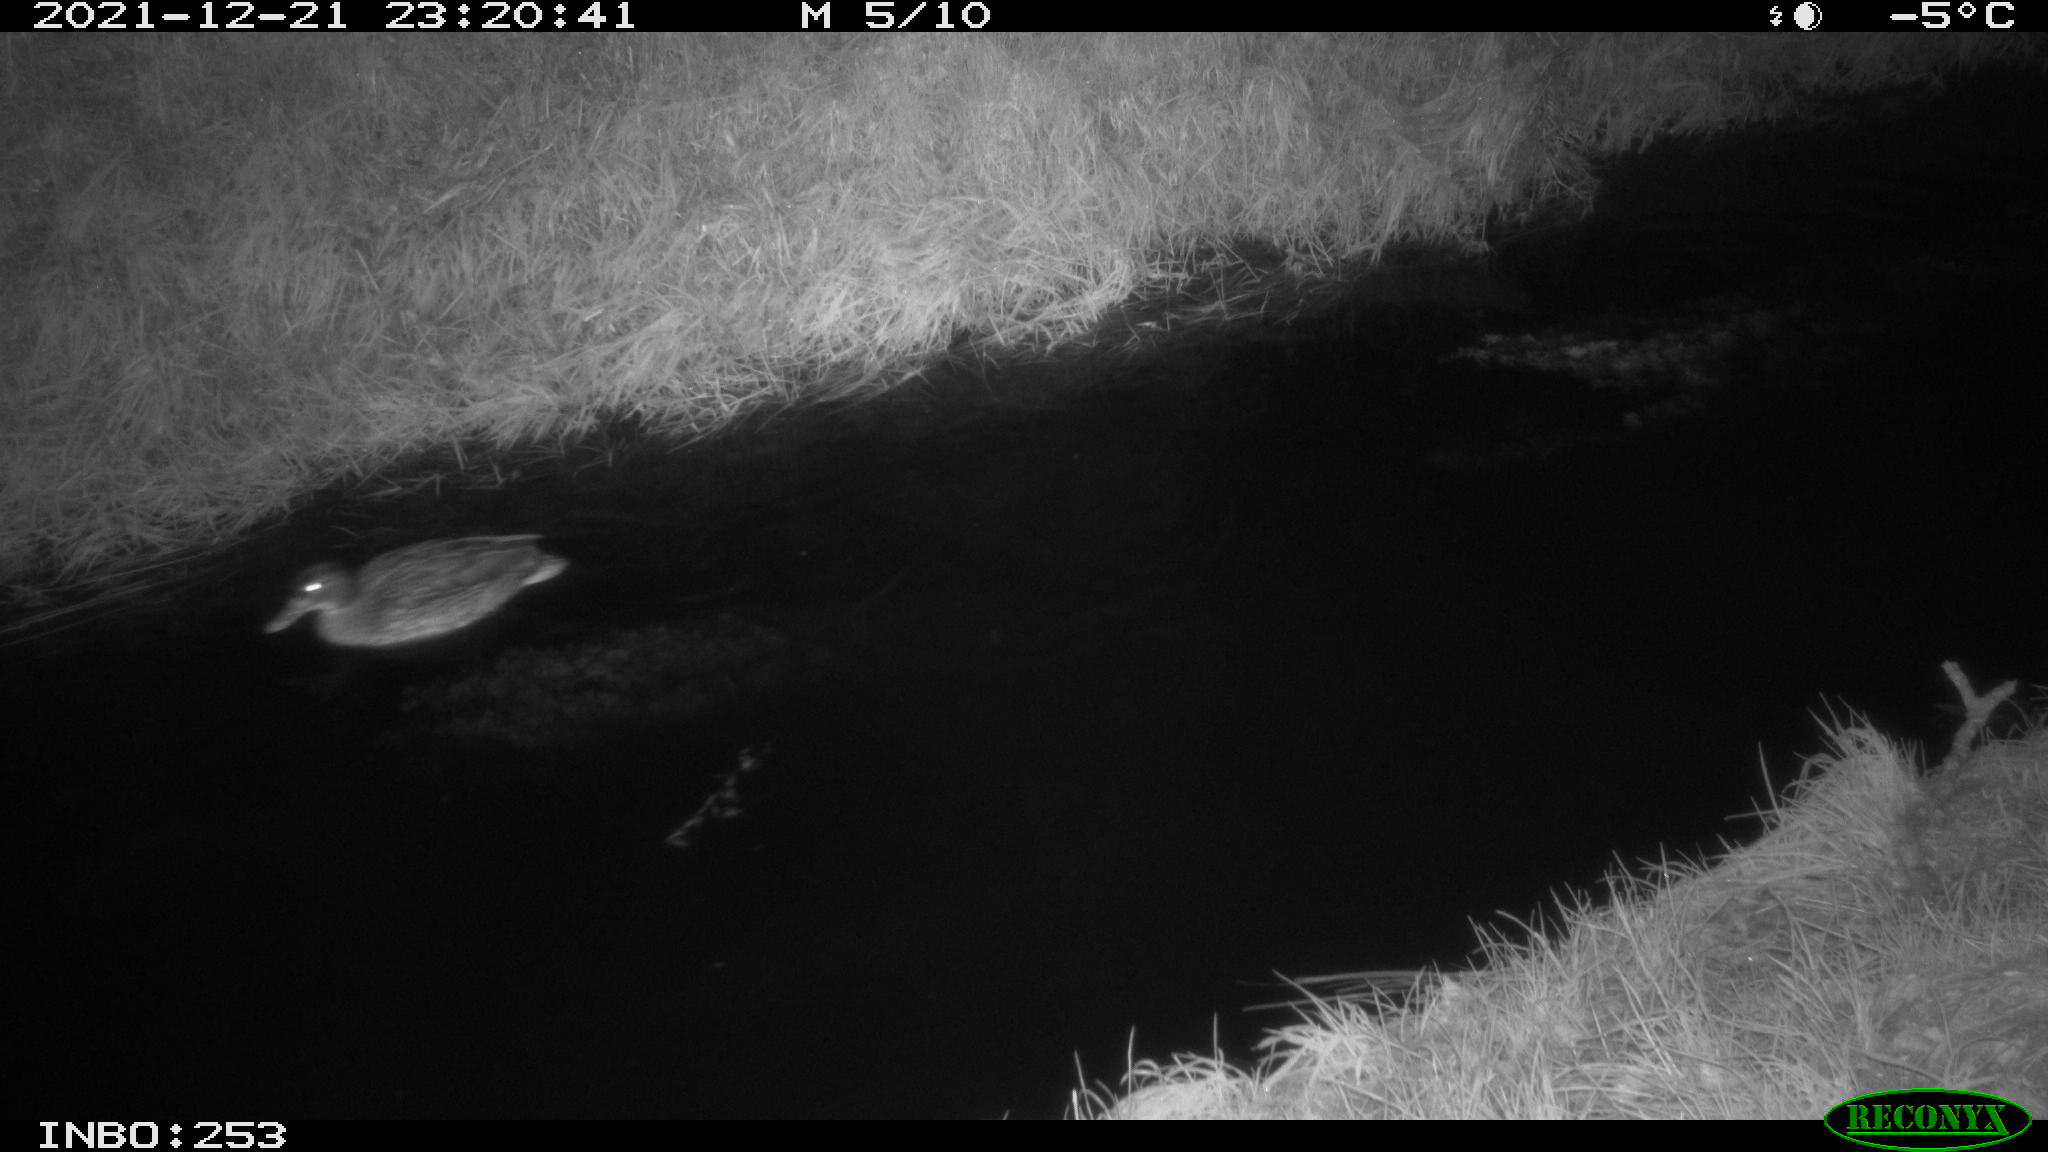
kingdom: Animalia
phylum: Chordata
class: Aves
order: Anseriformes
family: Anatidae
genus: Anas
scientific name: Anas
